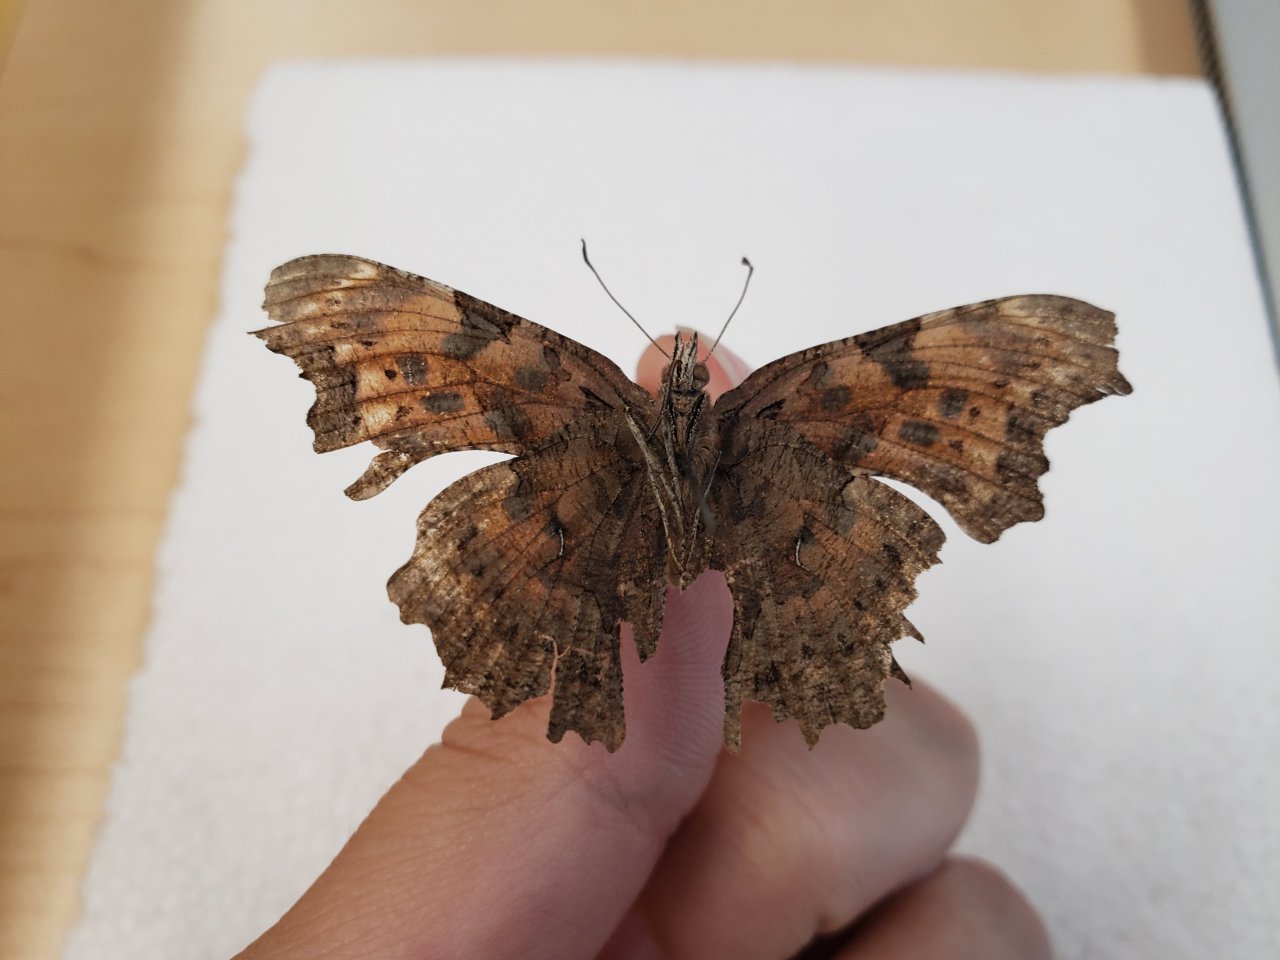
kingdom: Animalia
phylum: Arthropoda
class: Insecta
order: Lepidoptera
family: Nymphalidae
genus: Polygonia
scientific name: Polygonia faunus
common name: Green Comma
